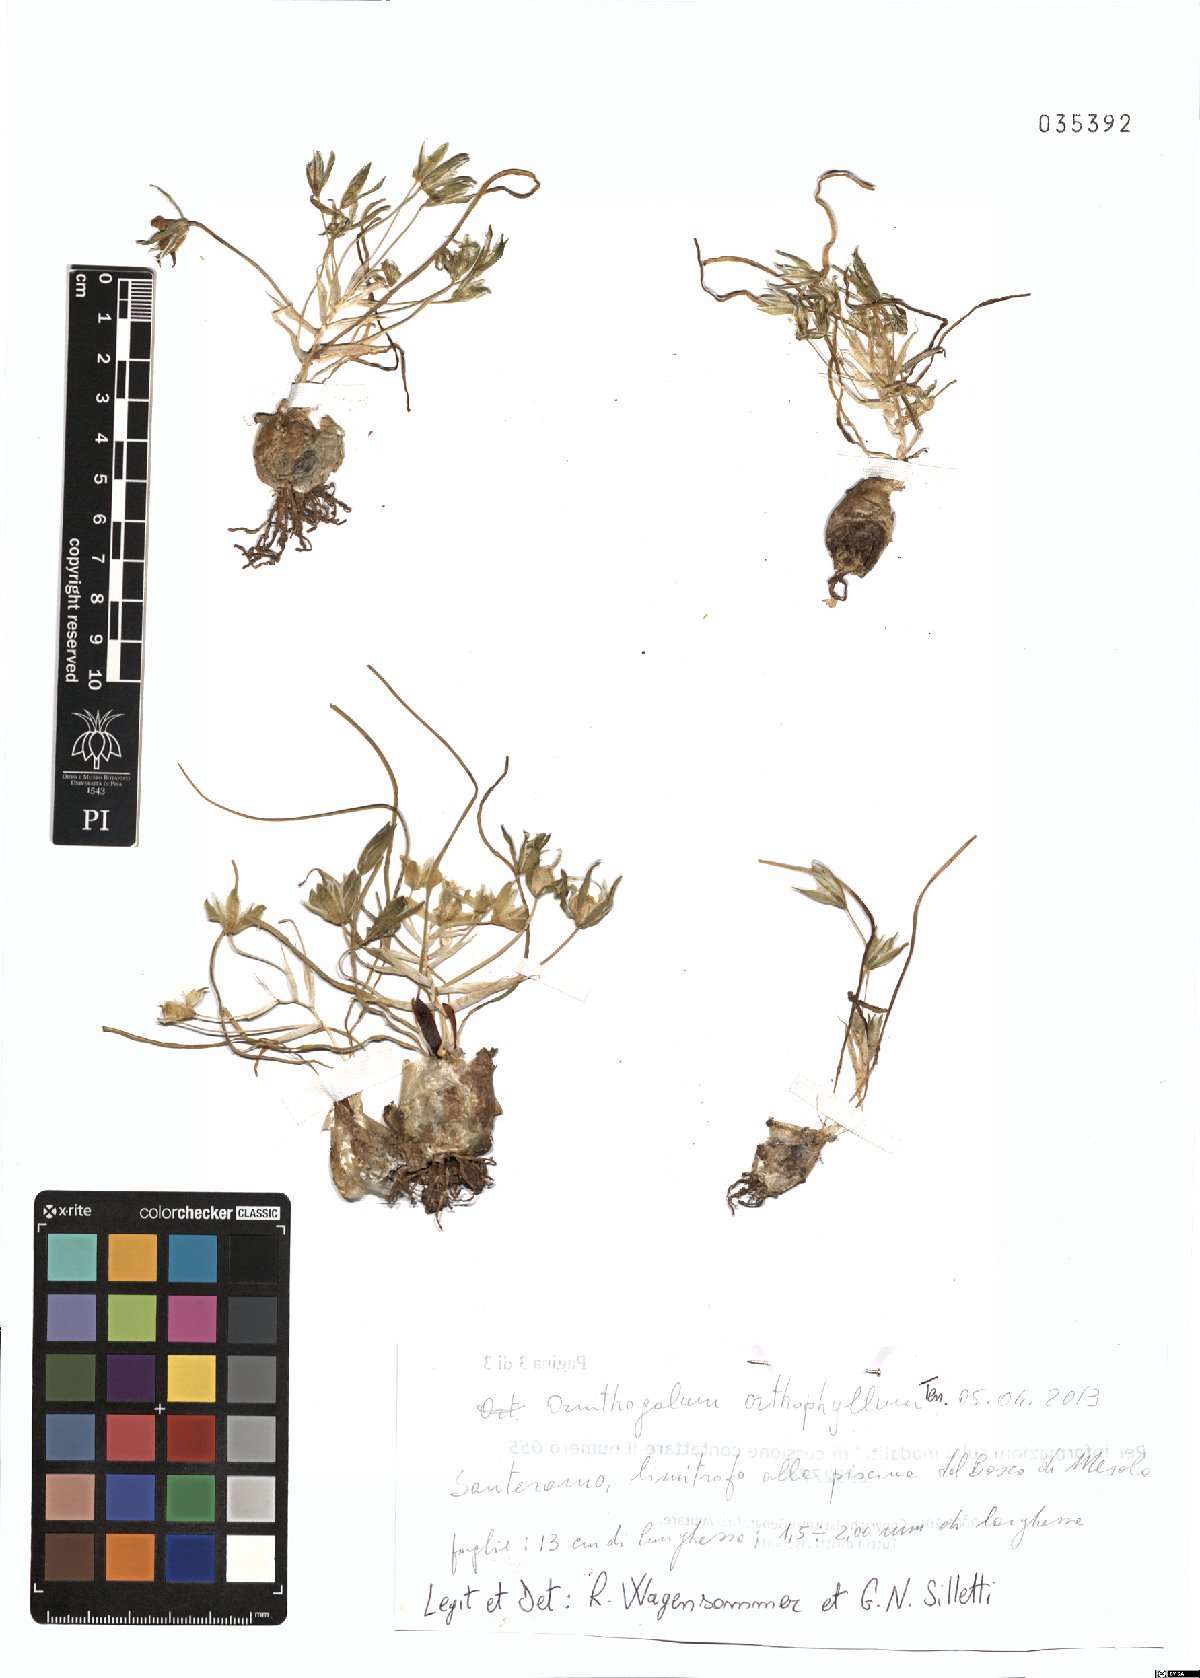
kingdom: Plantae
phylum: Tracheophyta
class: Liliopsida
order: Asparagales
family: Asparagaceae
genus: Ornithogalum
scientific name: Ornithogalum orthophyllum
